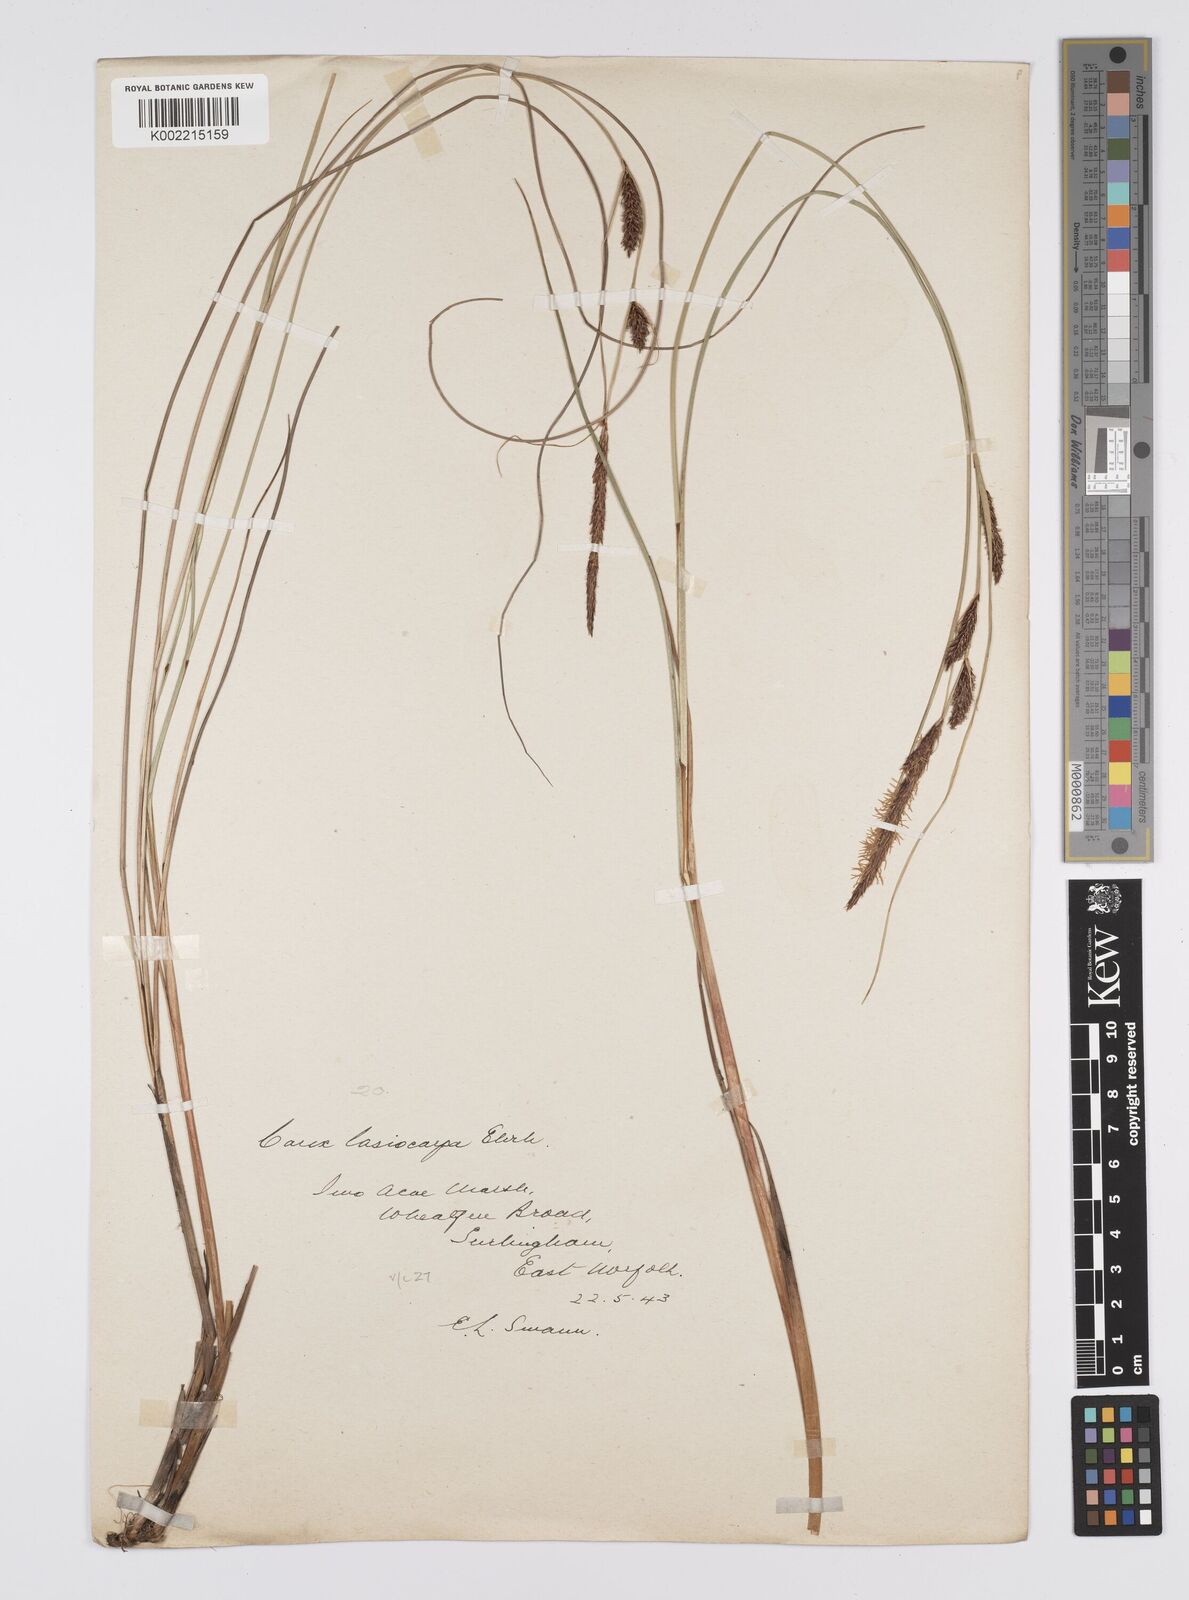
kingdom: Plantae
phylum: Tracheophyta
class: Liliopsida
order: Poales
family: Cyperaceae
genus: Carex
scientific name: Carex lasiocarpa
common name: Slender sedge
